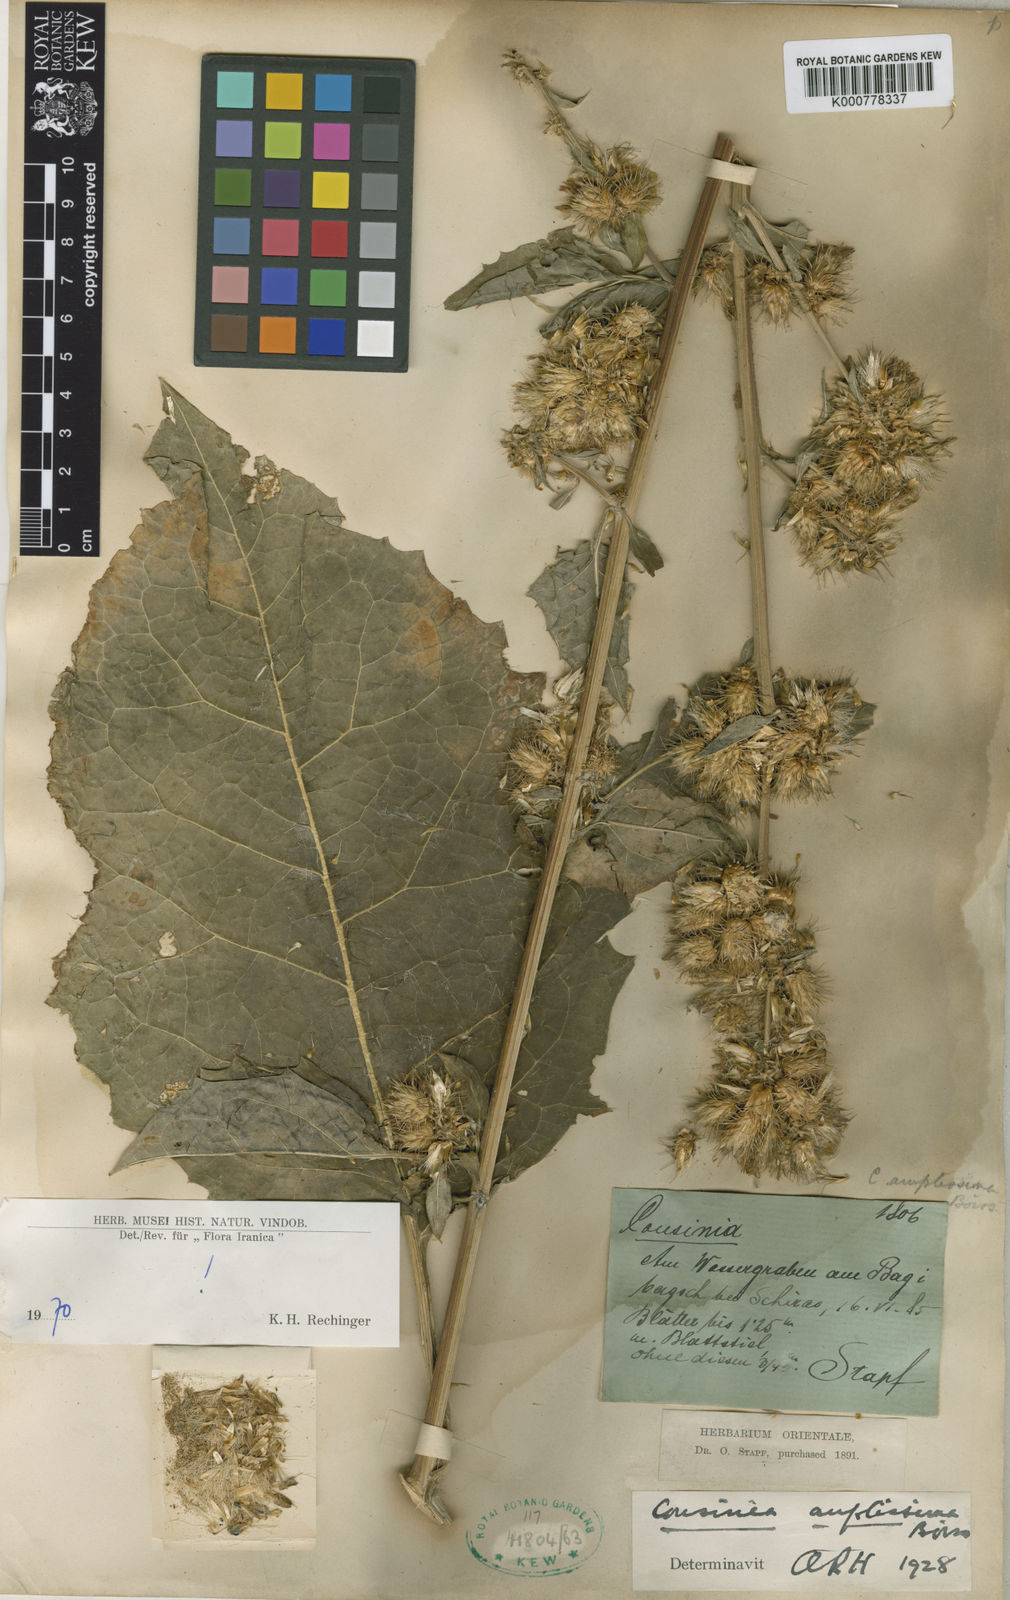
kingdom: Plantae
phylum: Tracheophyta
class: Magnoliopsida
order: Asterales
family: Asteraceae
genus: Arctium
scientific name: Arctium amplissimum
